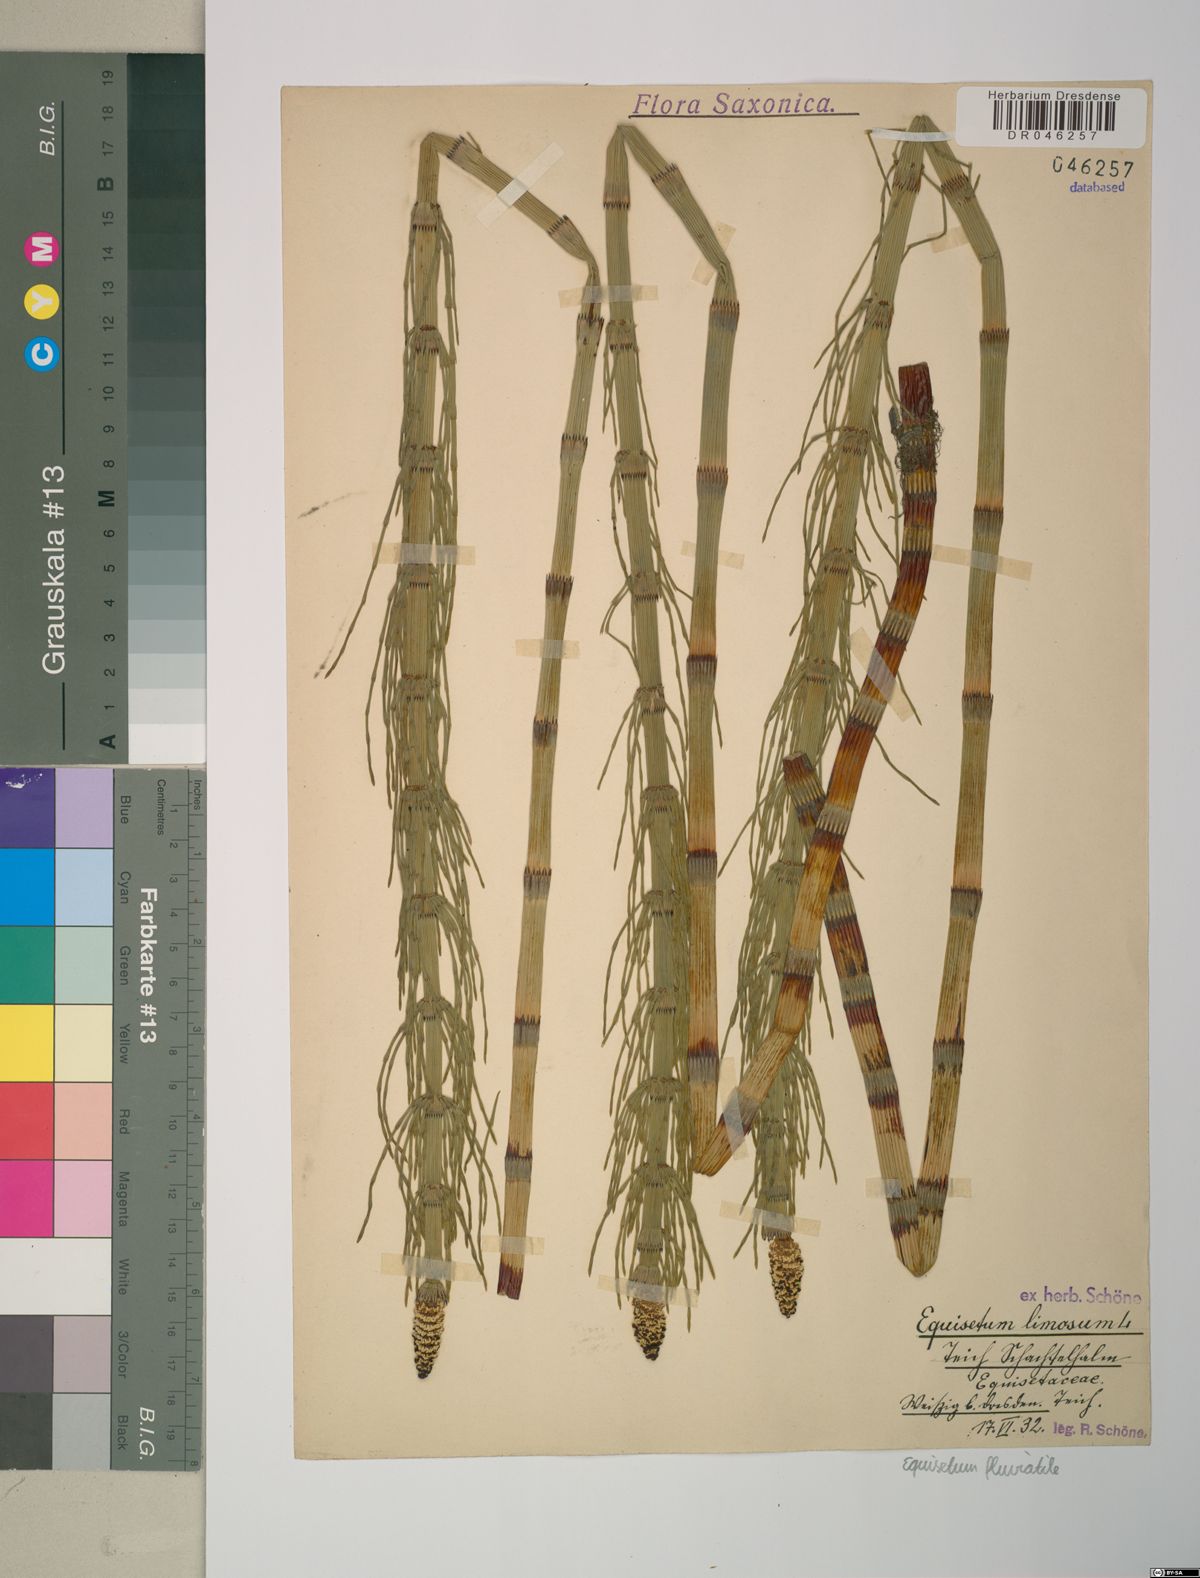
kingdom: Plantae
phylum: Tracheophyta
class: Polypodiopsida
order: Equisetales
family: Equisetaceae
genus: Equisetum
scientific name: Equisetum fluviatile
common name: Water horsetail
